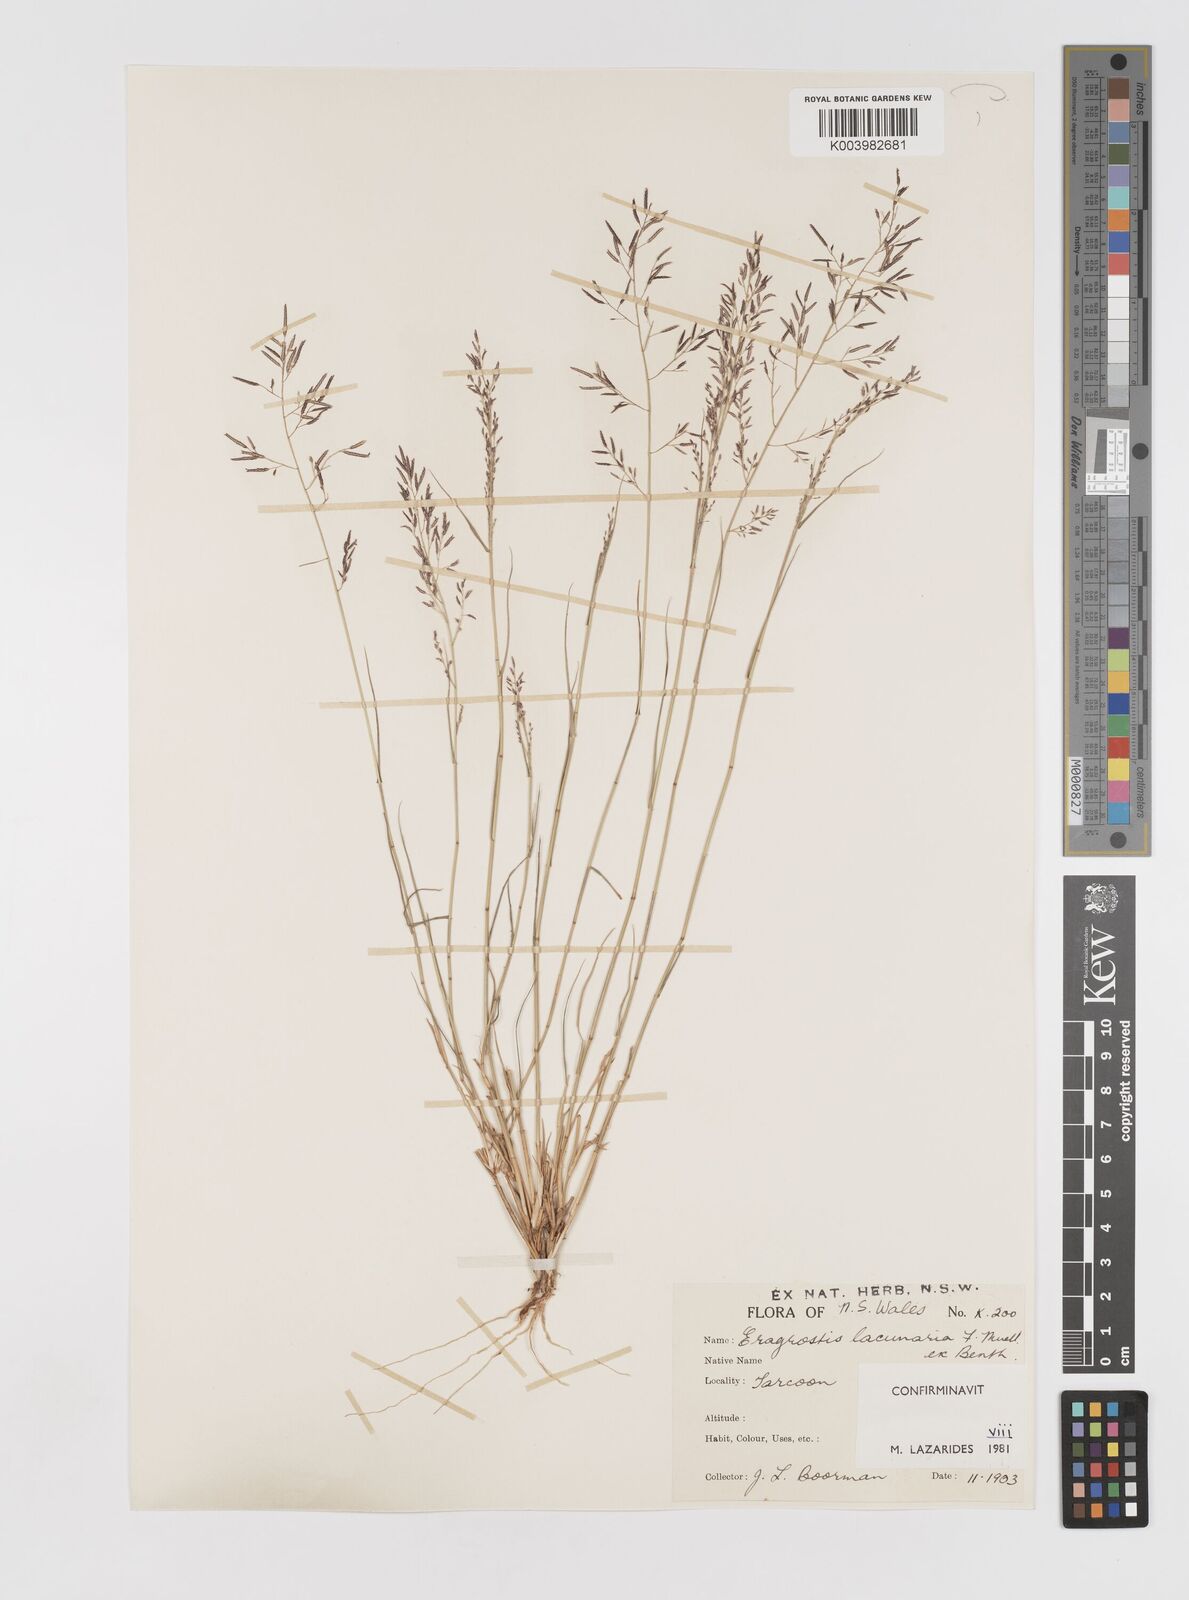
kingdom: Plantae
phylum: Tracheophyta
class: Liliopsida
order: Poales
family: Poaceae
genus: Eragrostis
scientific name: Eragrostis lacunaria
